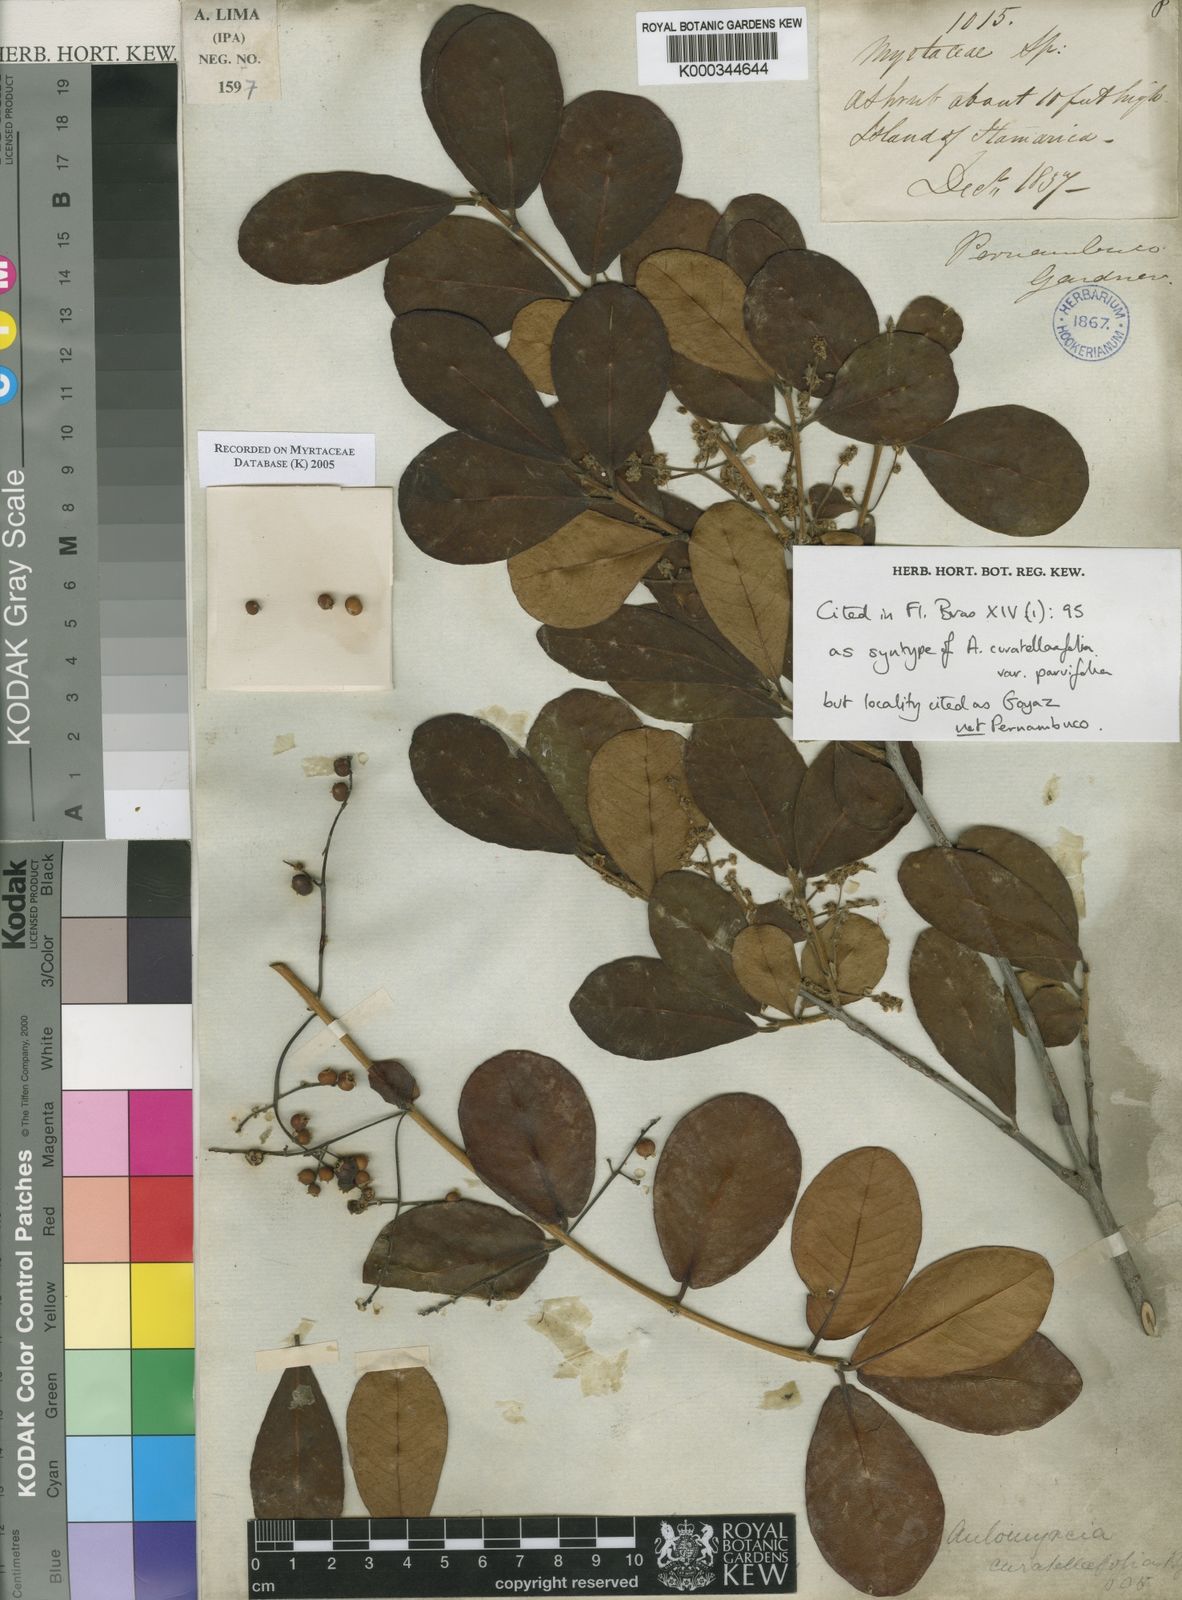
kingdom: Plantae
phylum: Tracheophyta
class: Magnoliopsida
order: Myrtales
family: Myrtaceae
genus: Myrcia
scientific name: Myrcia tomentosa
